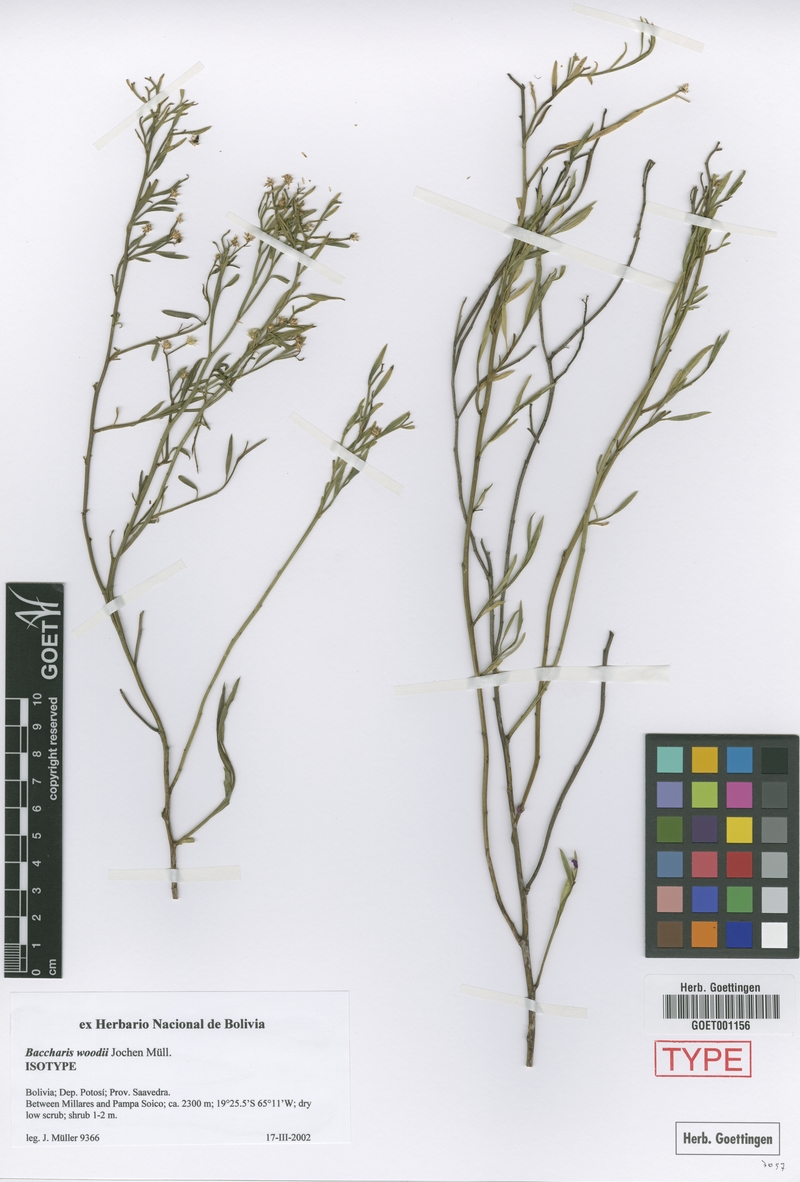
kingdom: Plantae
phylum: Tracheophyta
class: Magnoliopsida
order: Asterales
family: Asteraceae
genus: Baccharis
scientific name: Baccharis woodii
